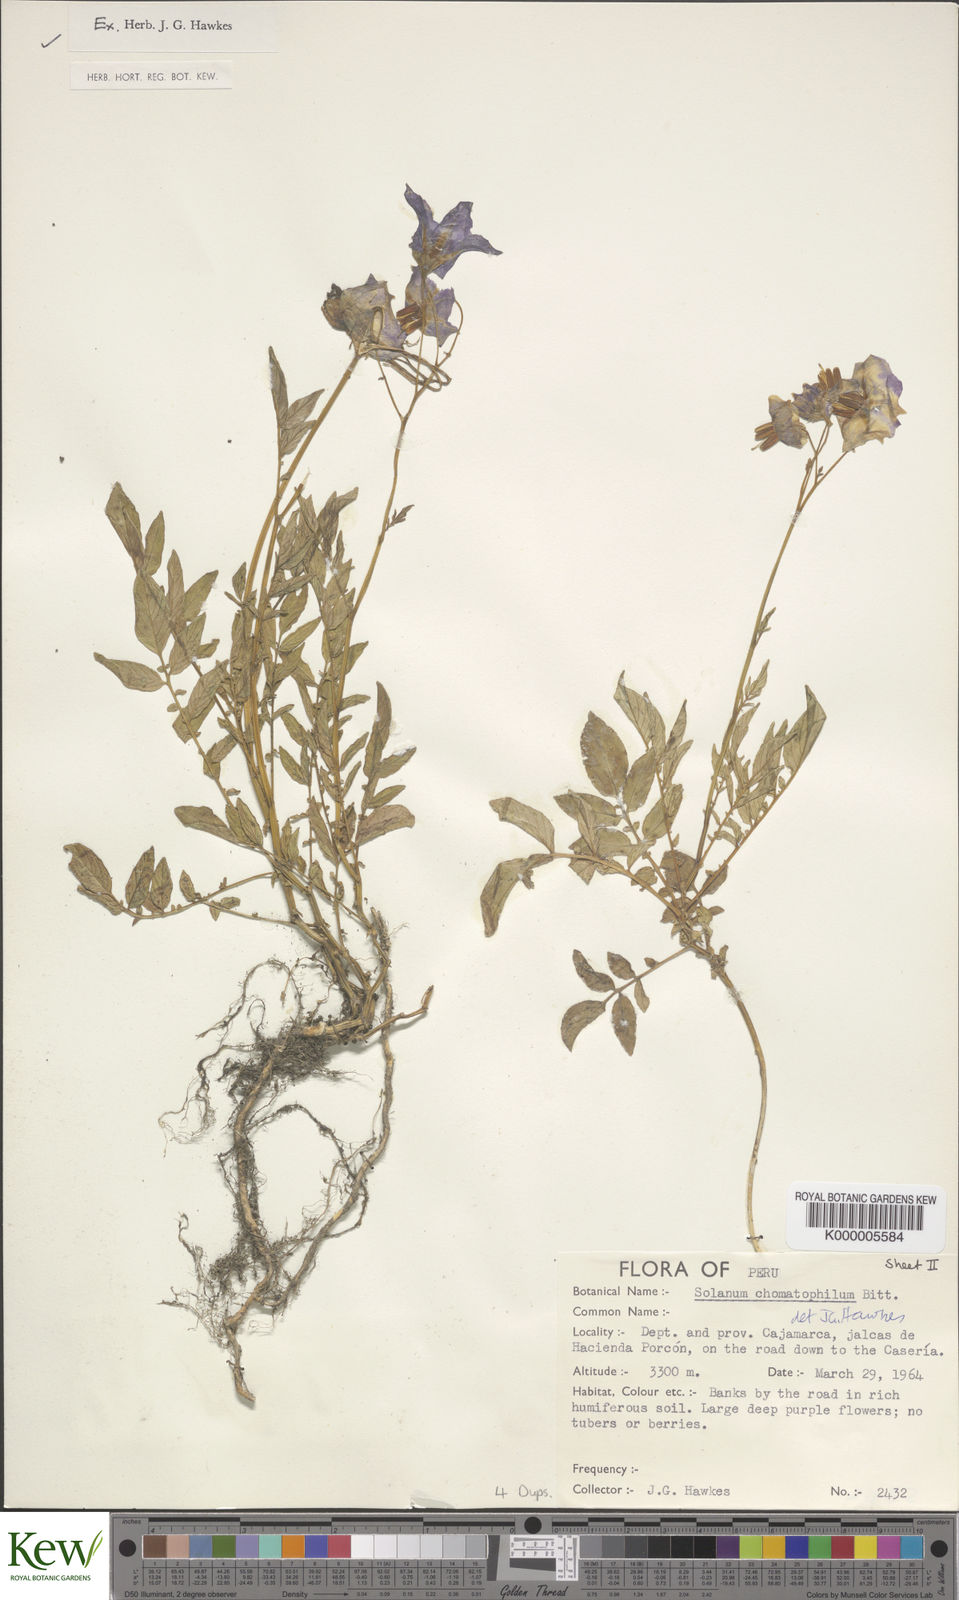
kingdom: Plantae
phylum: Tracheophyta
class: Magnoliopsida
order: Solanales
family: Solanaceae
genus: Solanum
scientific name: Solanum chomatophilum
